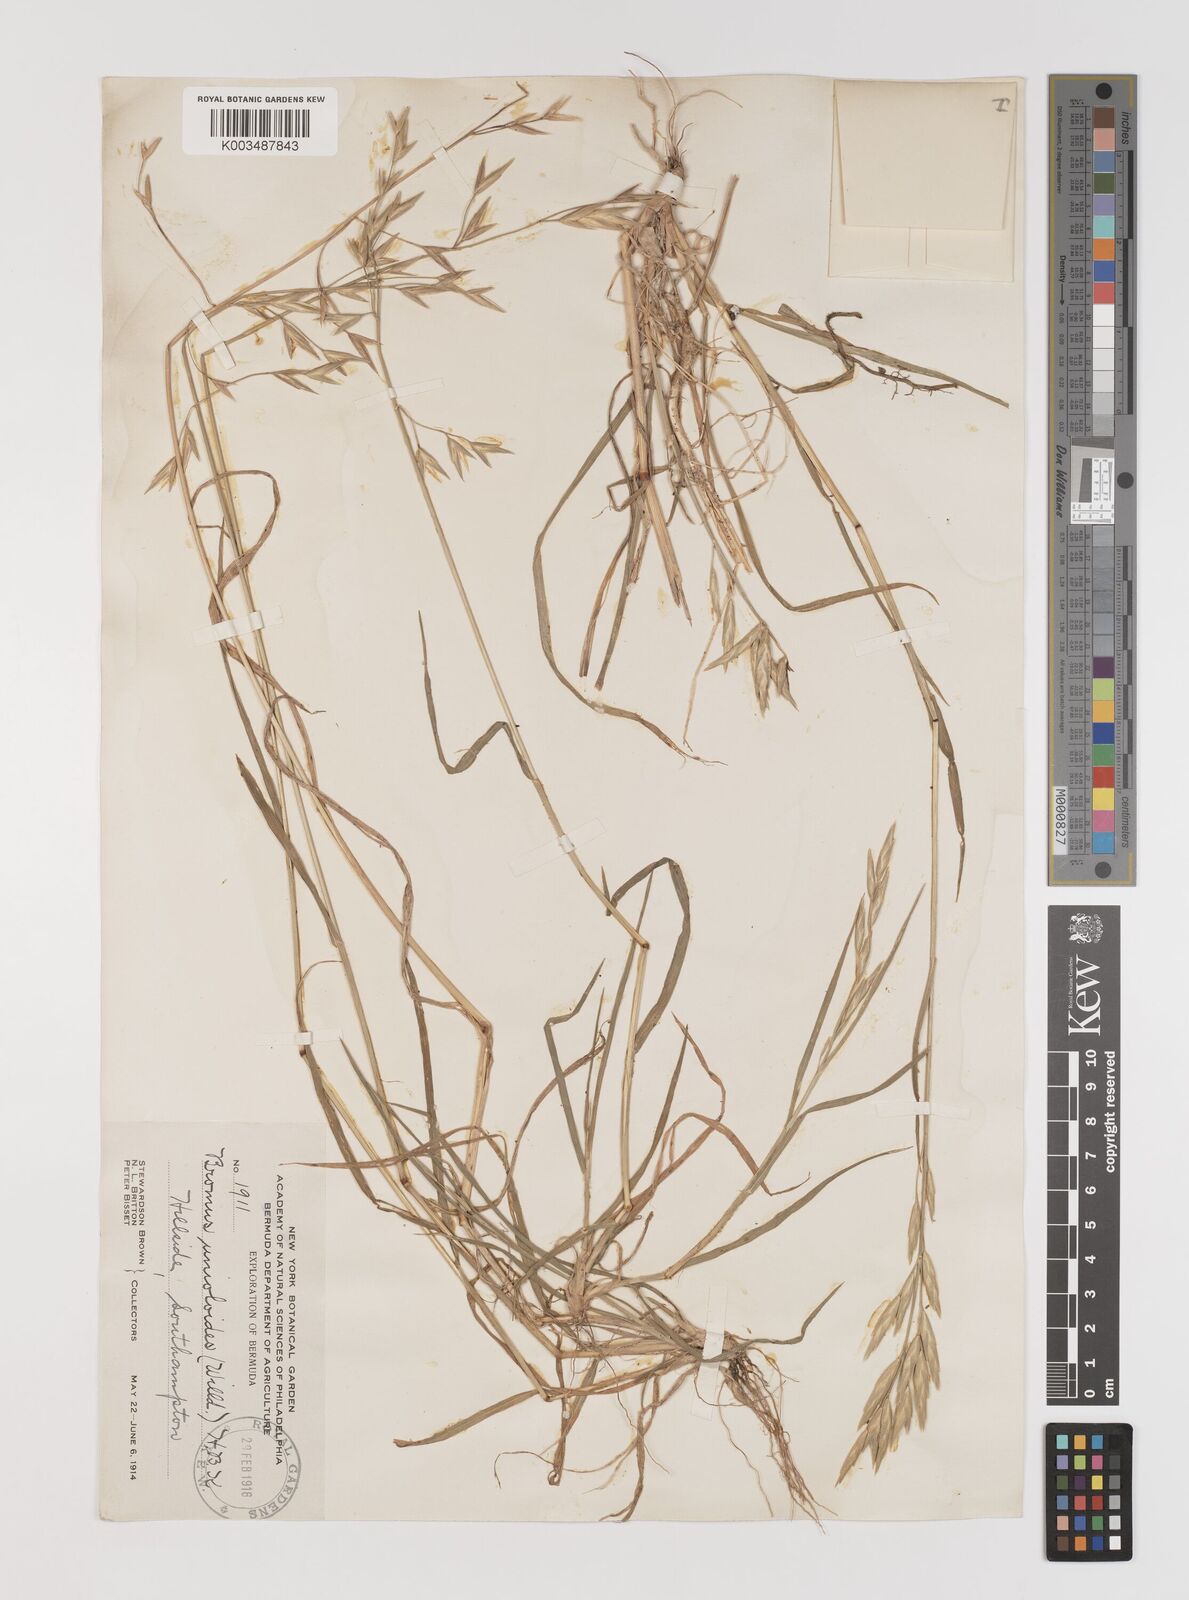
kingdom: Plantae
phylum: Tracheophyta
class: Liliopsida
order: Poales
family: Poaceae
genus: Bromus
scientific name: Bromus catharticus
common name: Rescuegrass
